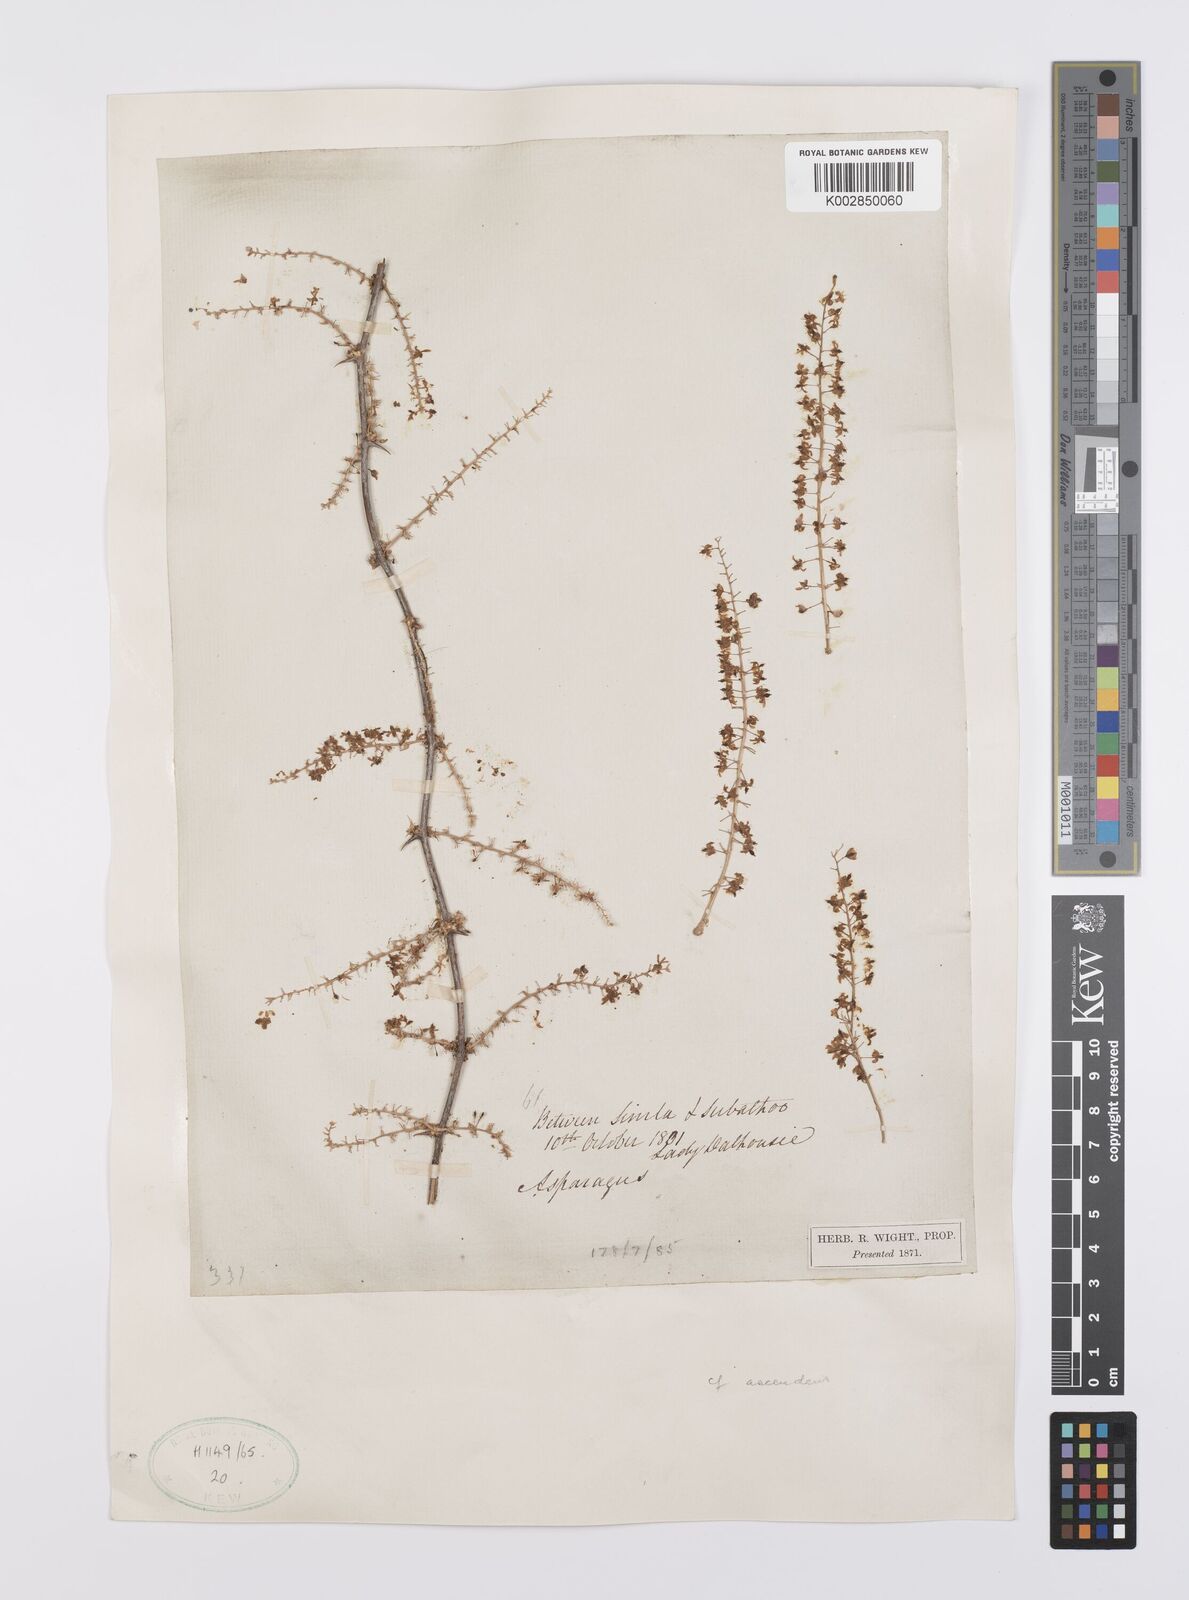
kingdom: Plantae
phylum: Tracheophyta
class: Liliopsida
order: Asparagales
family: Asparagaceae
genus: Asparagus
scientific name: Asparagus racemosus
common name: Asparagus-fern
